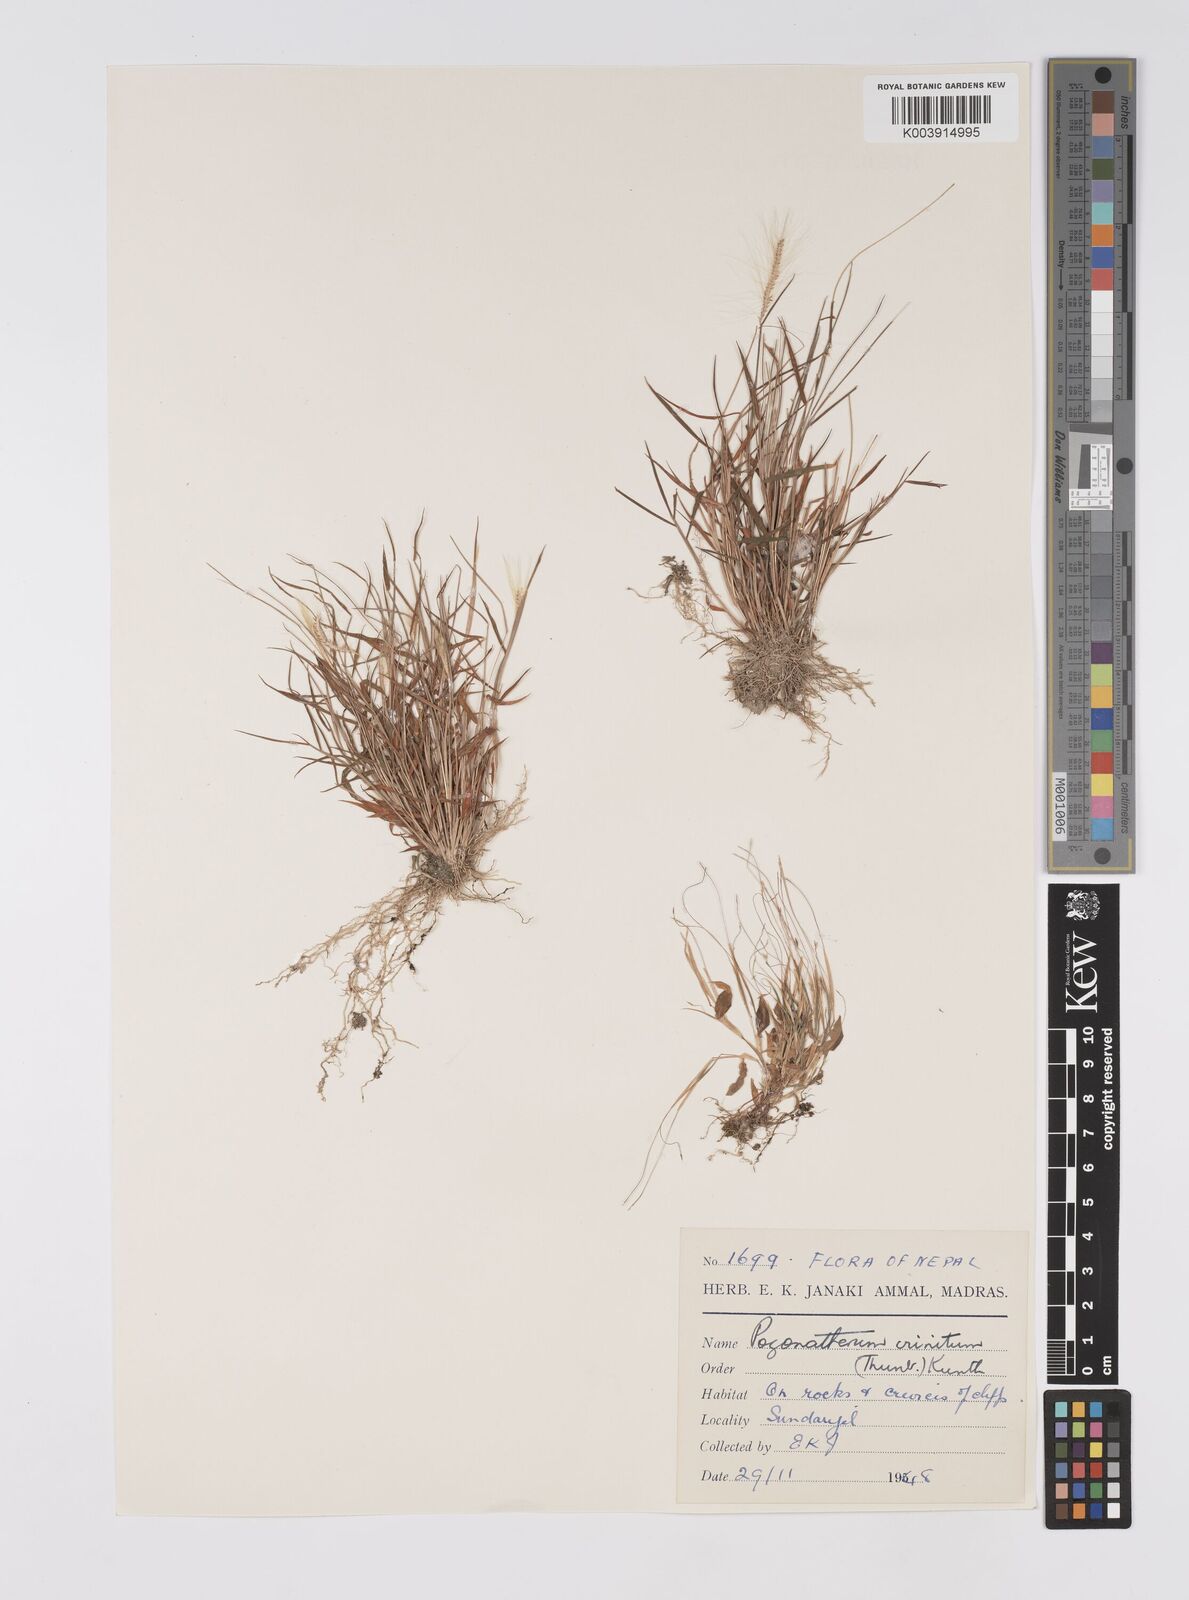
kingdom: Plantae
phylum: Tracheophyta
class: Liliopsida
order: Poales
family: Poaceae
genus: Pogonatherum
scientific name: Pogonatherum crinitum
